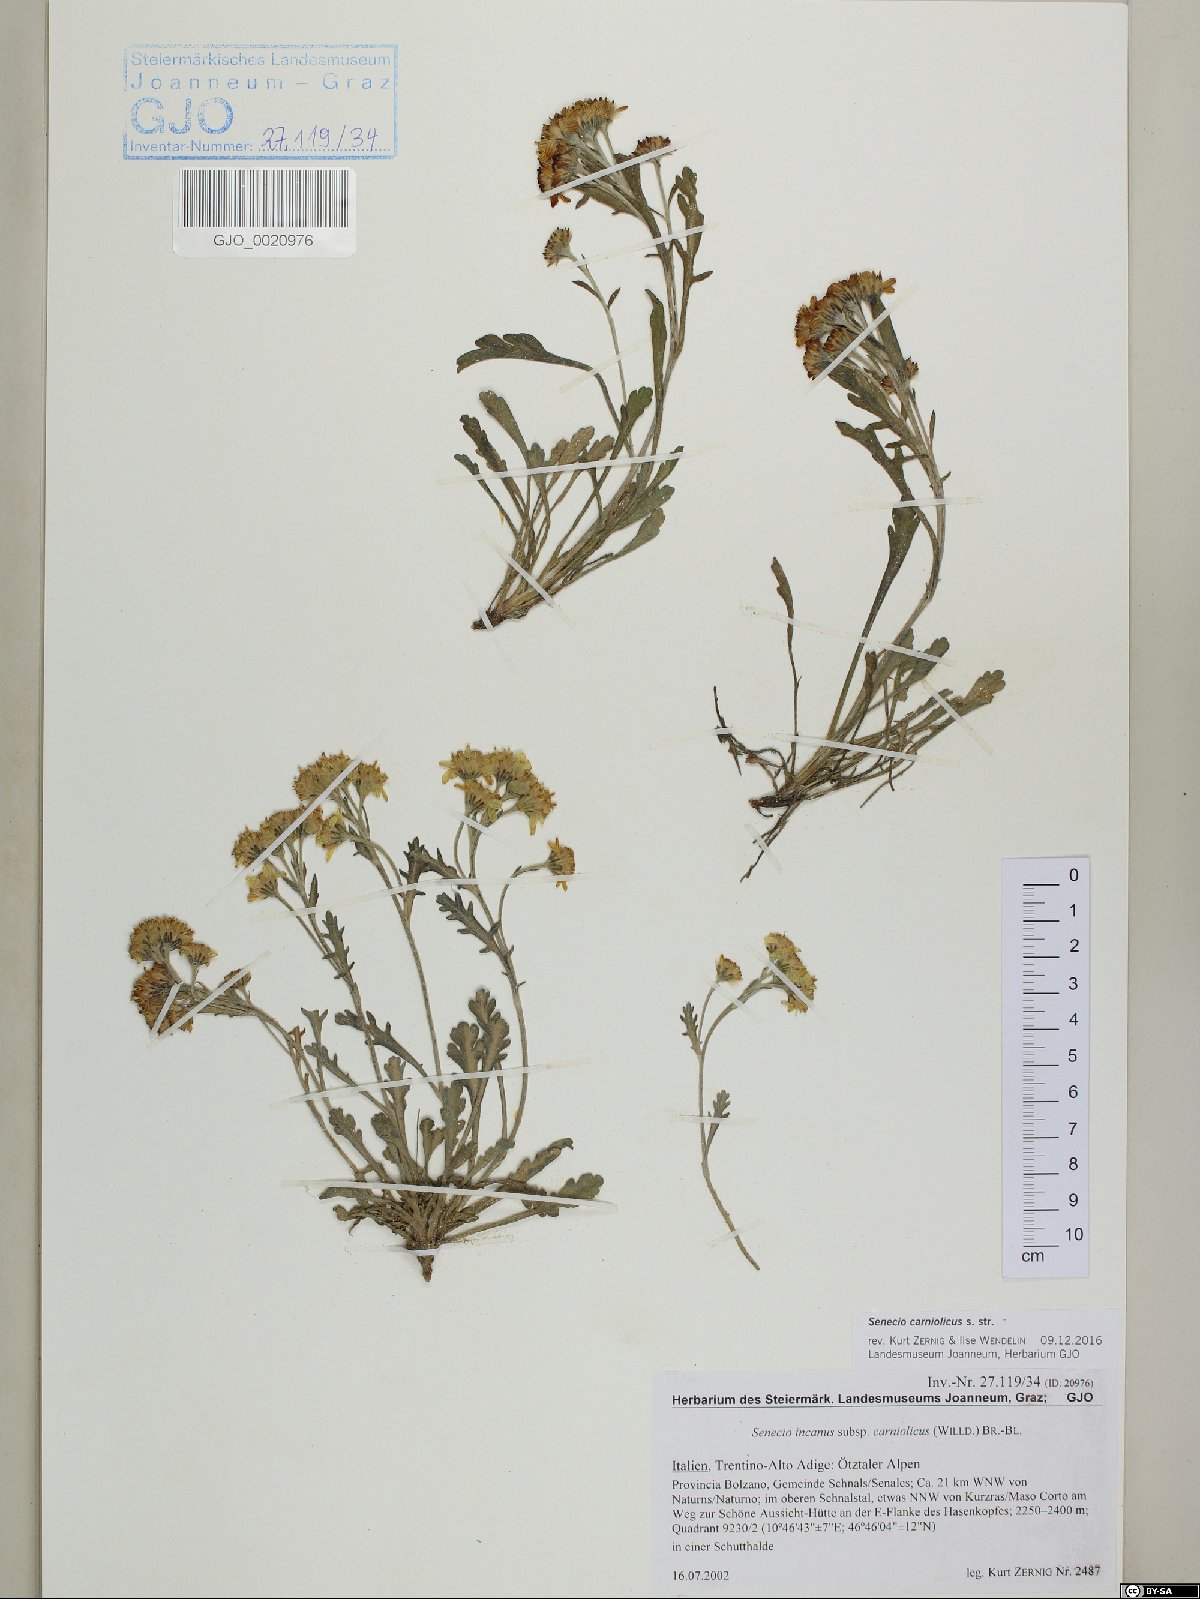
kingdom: Plantae
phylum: Tracheophyta
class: Magnoliopsida
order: Asterales
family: Asteraceae
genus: Jacobaea
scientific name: Jacobaea carniolica
